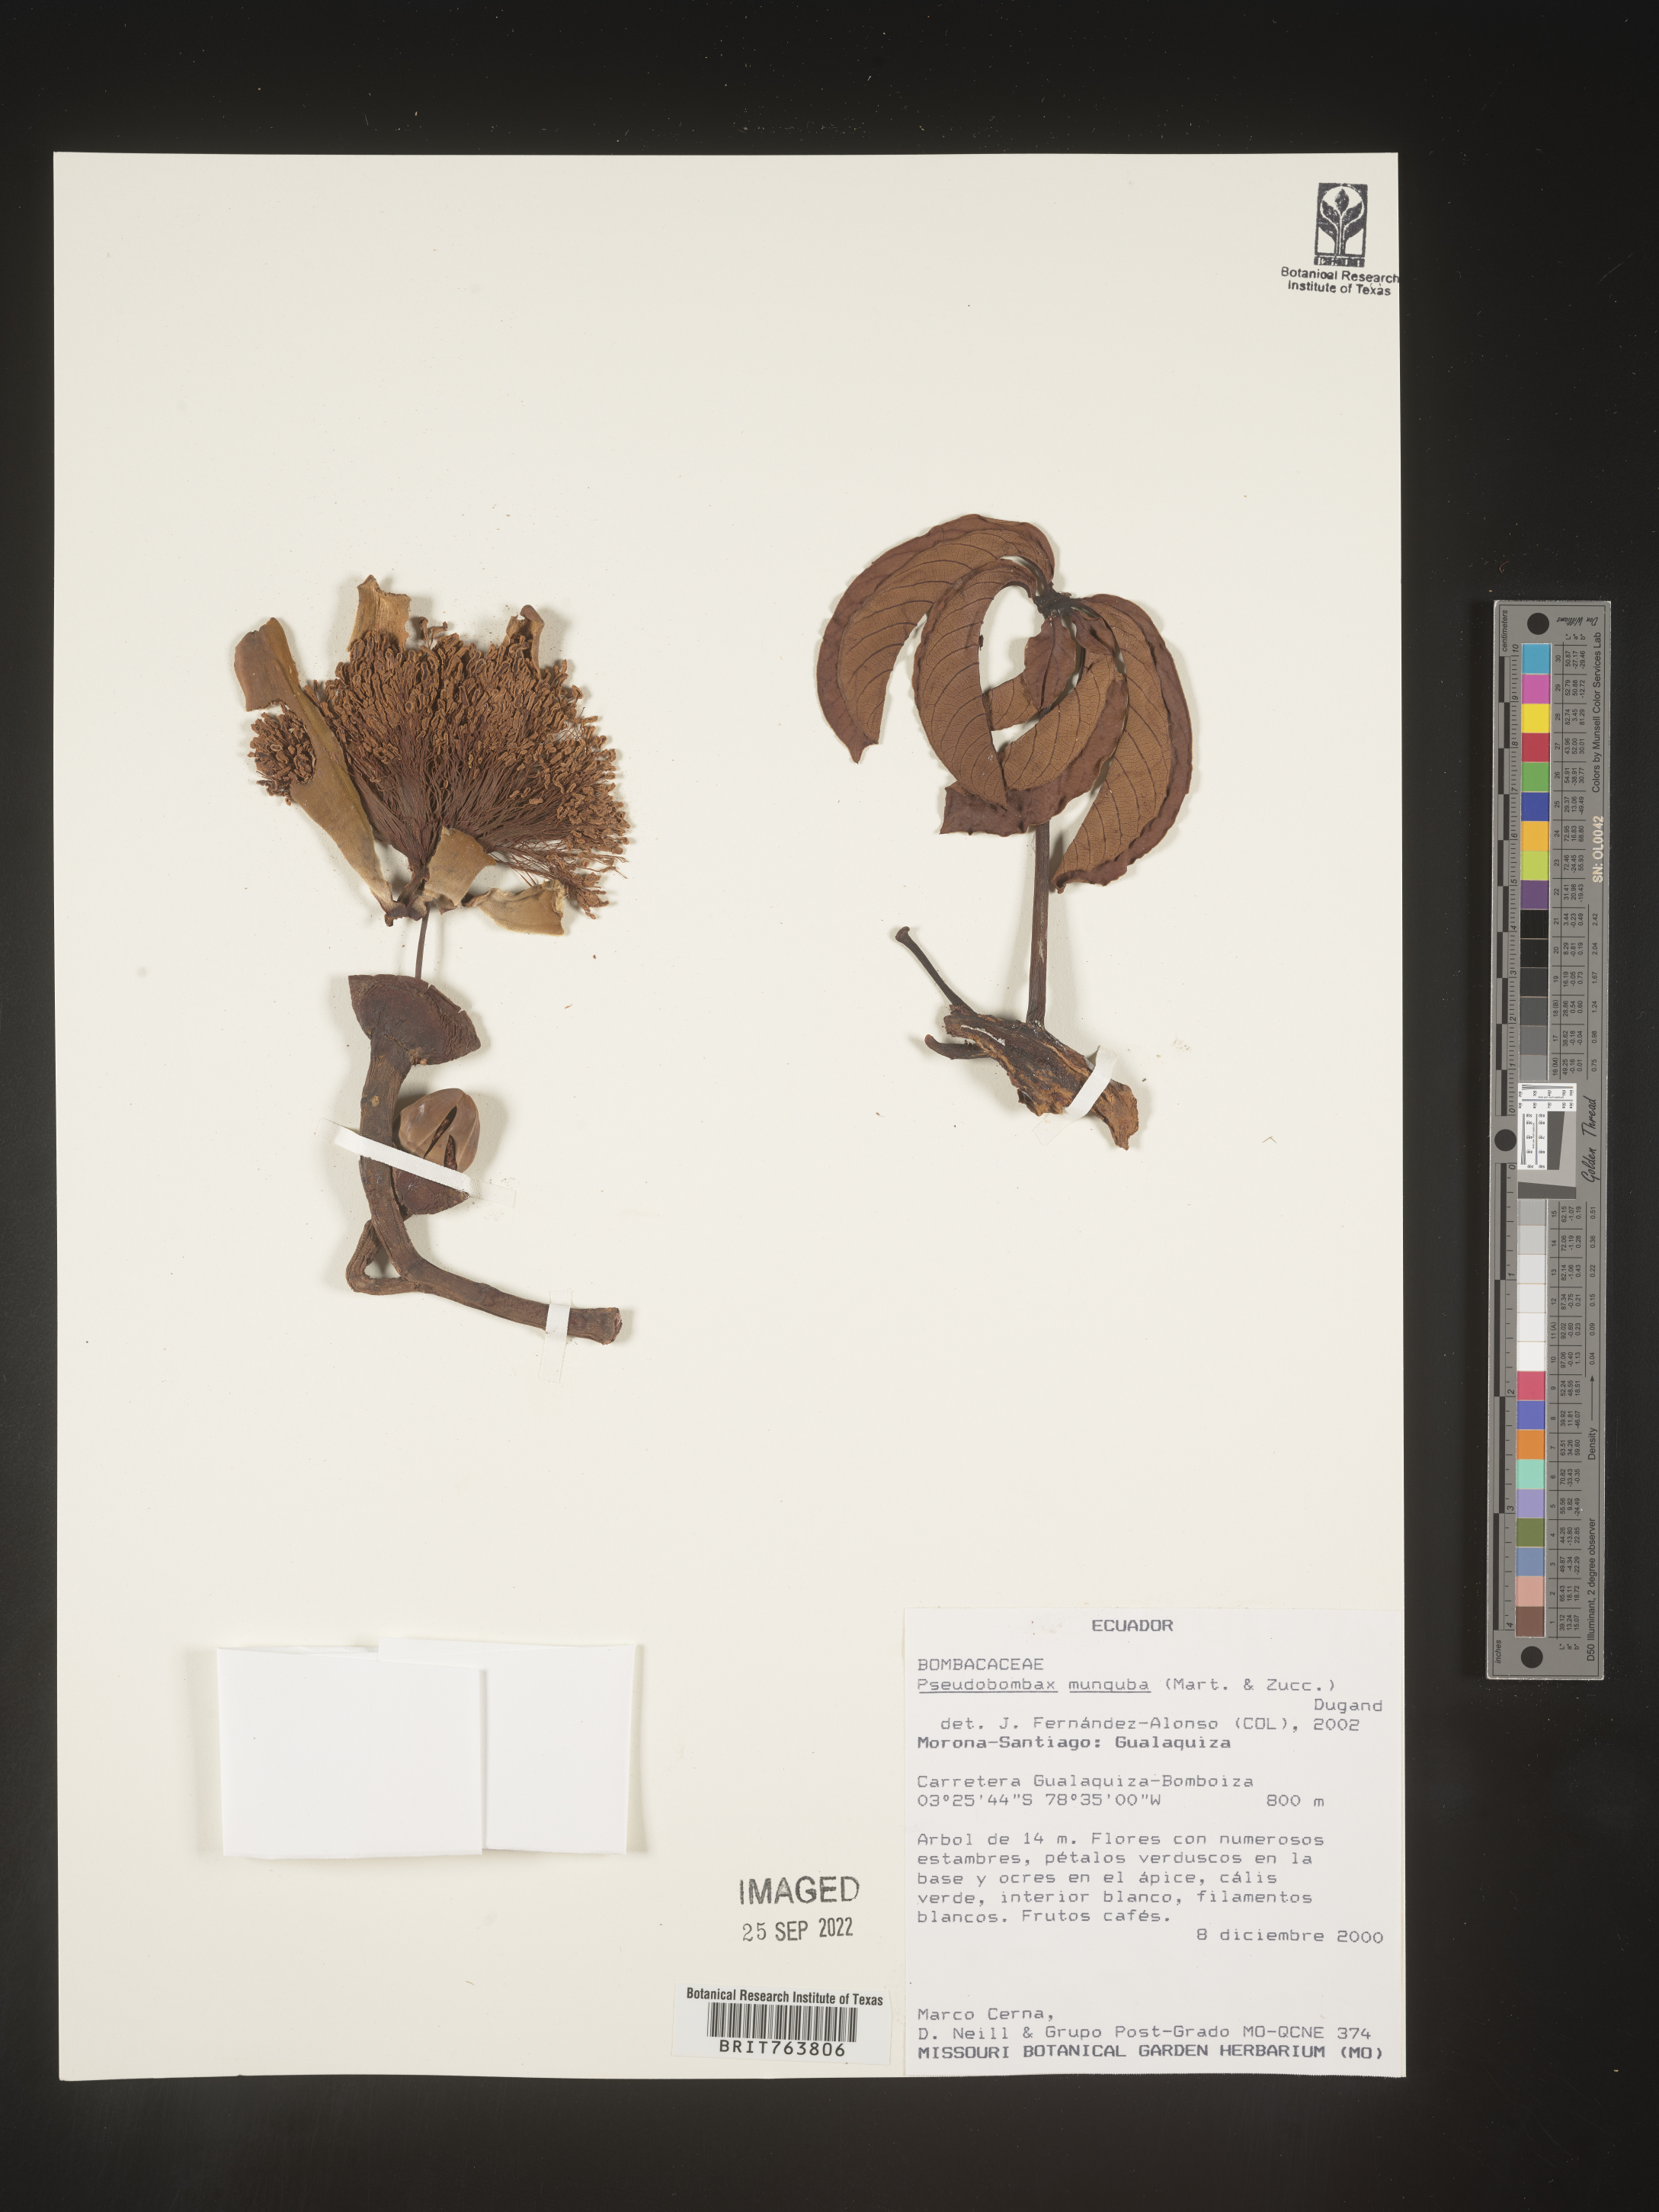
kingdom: Plantae
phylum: Tracheophyta
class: Magnoliopsida
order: Malvales
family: Malvaceae
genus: Pseudobombax
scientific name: Pseudobombax
